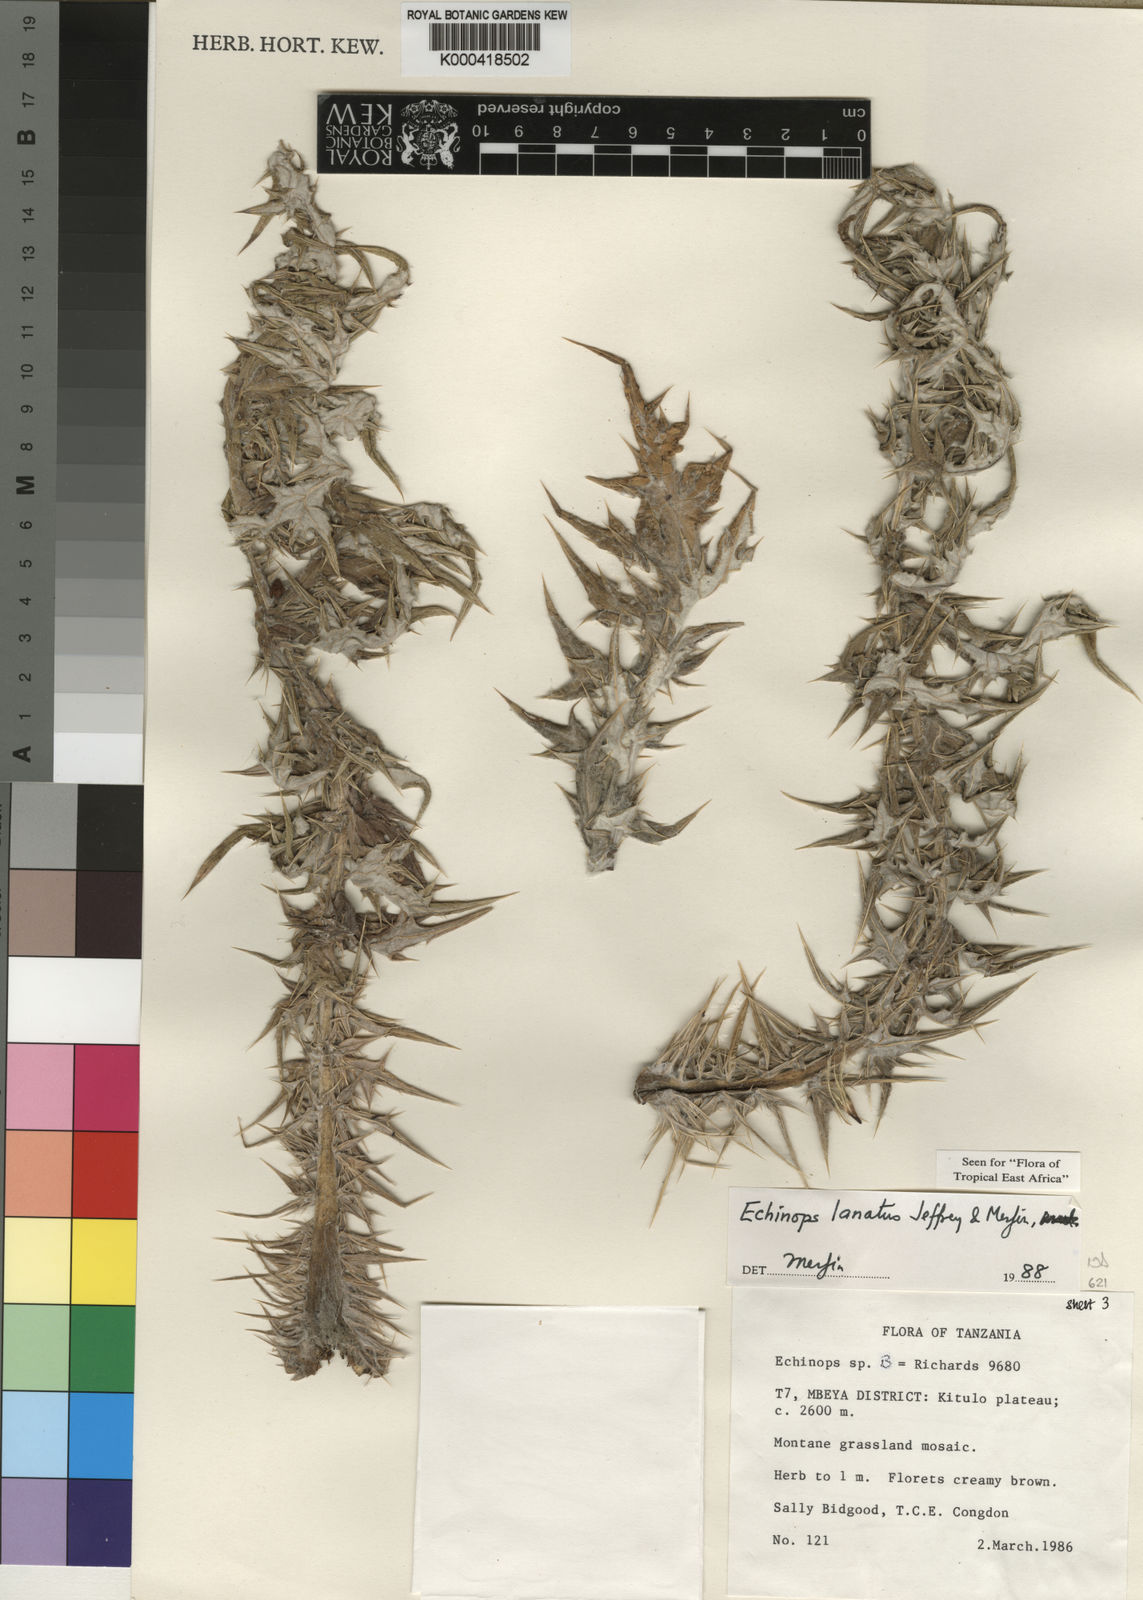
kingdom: Plantae
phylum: Tracheophyta
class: Magnoliopsida
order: Asterales
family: Asteraceae
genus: Echinops
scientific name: Echinops lanatus
